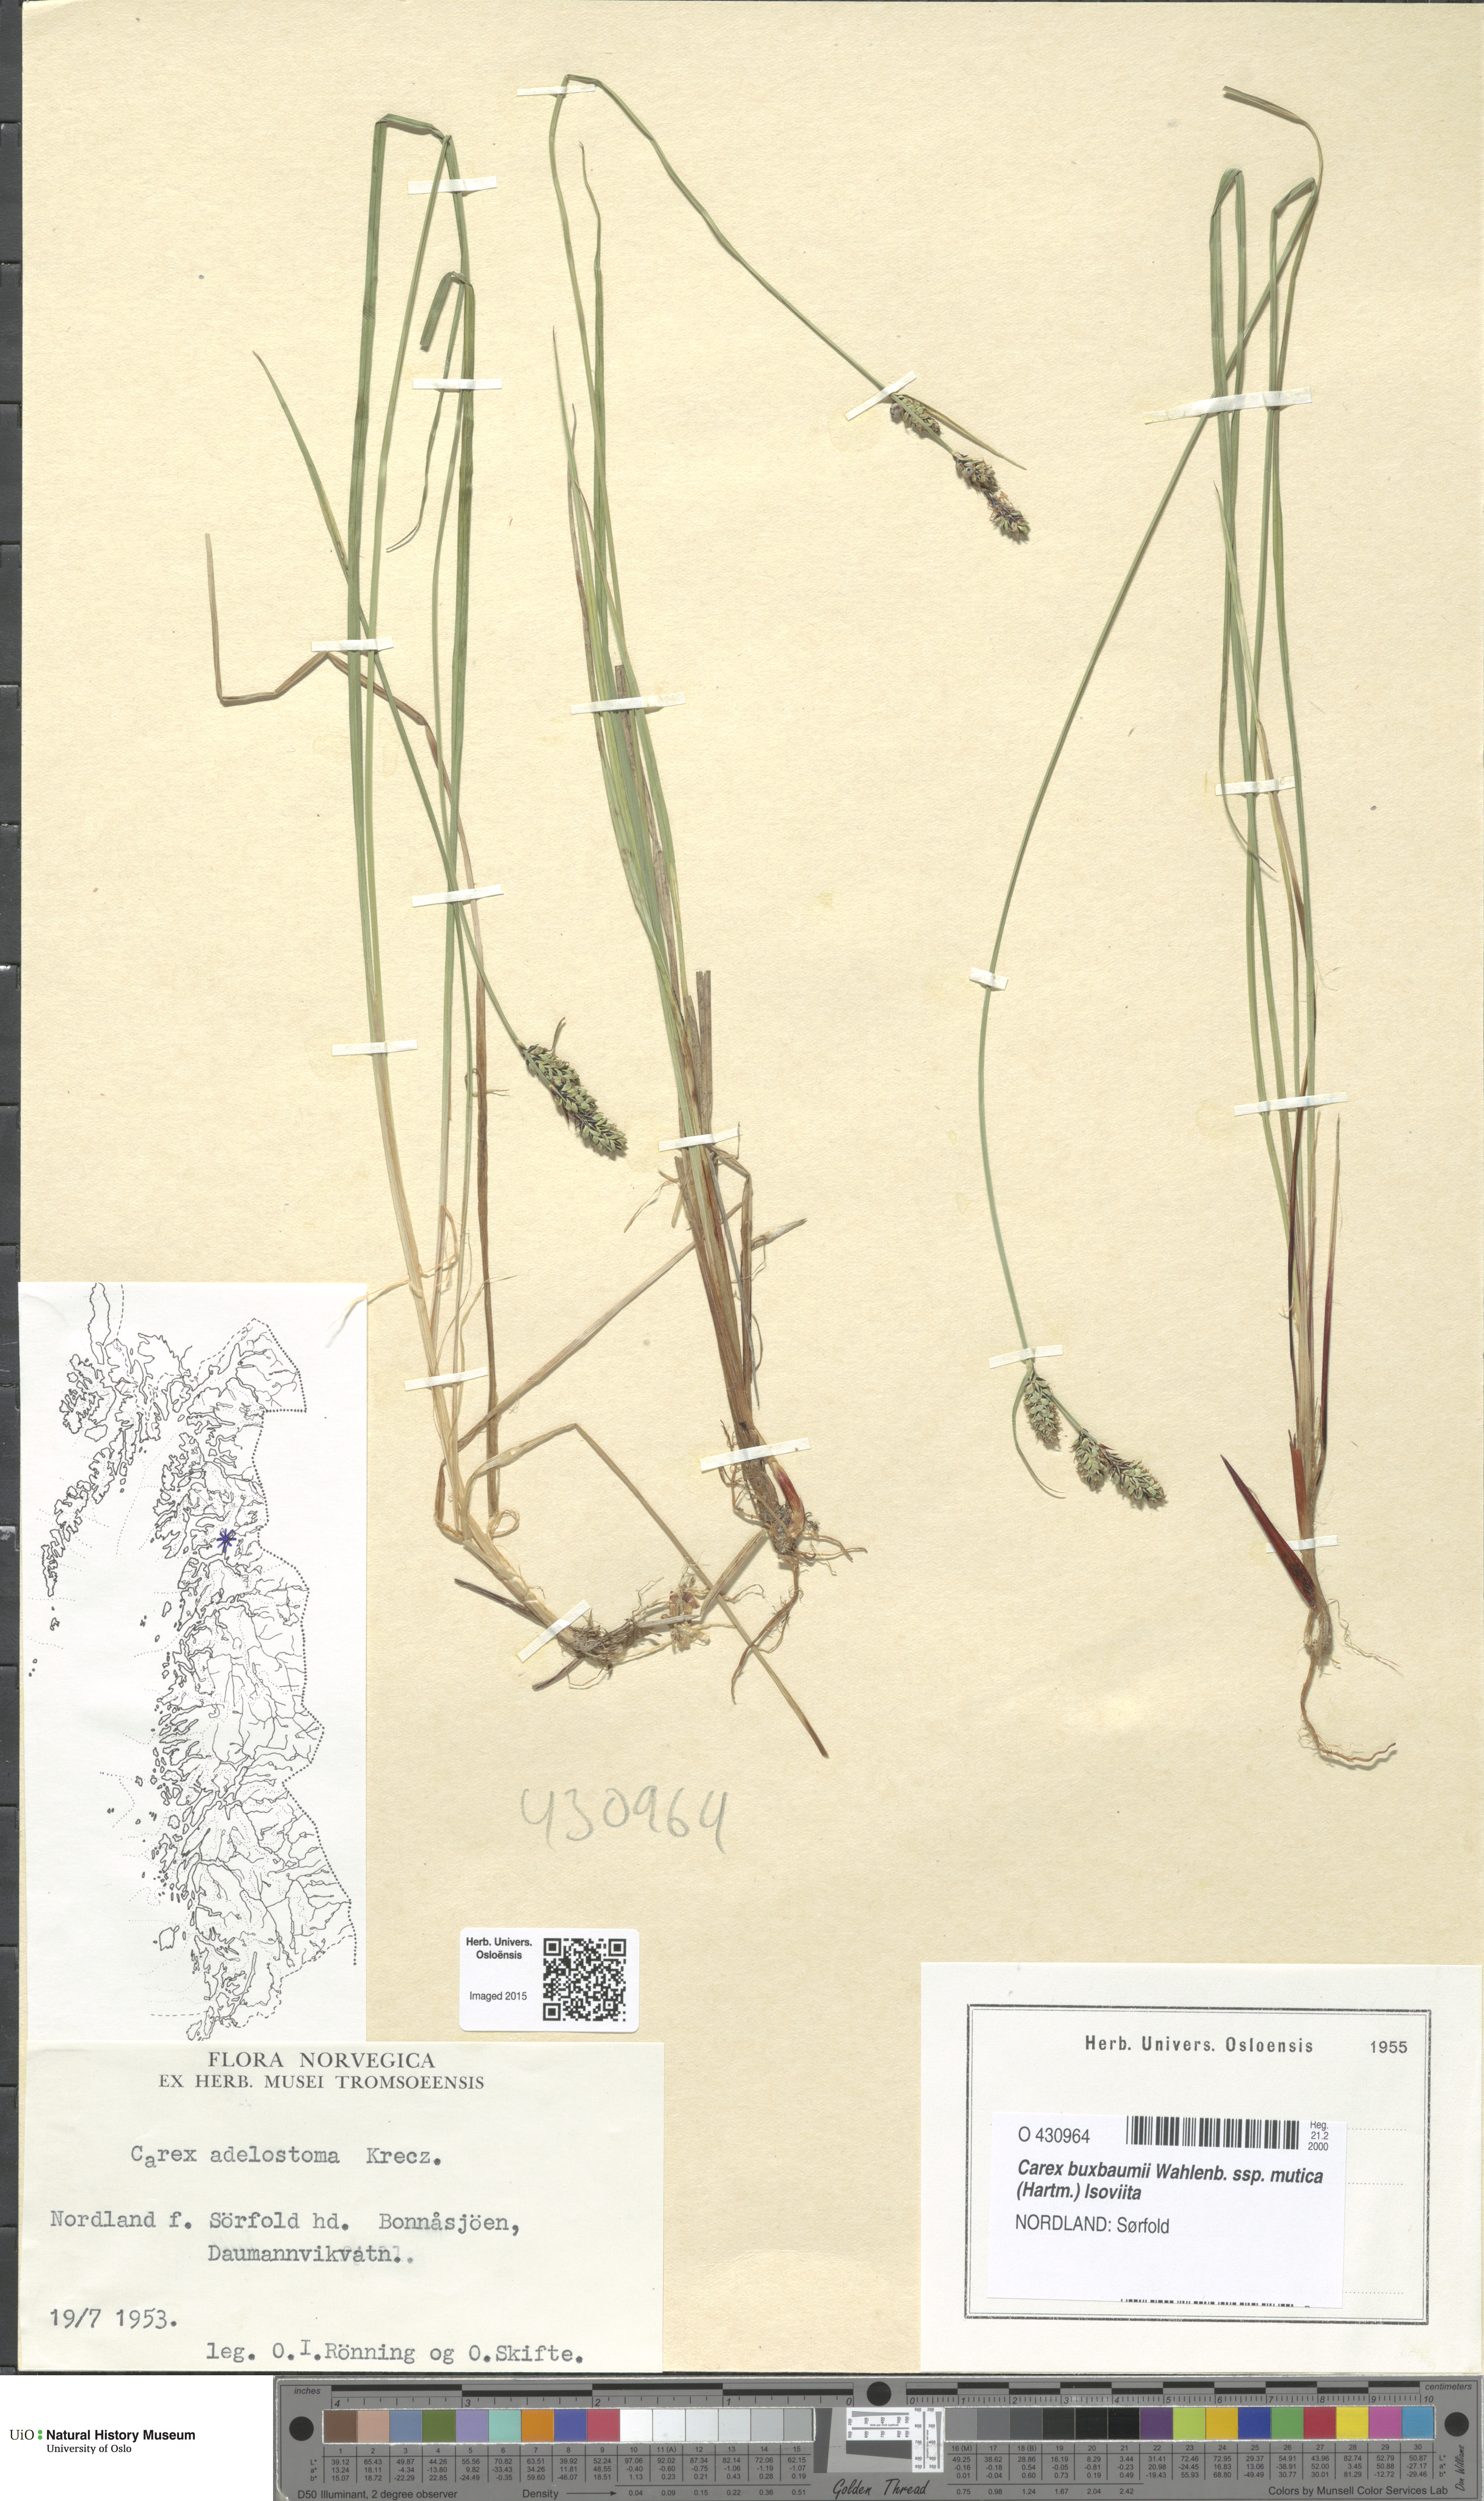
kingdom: Plantae
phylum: Tracheophyta
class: Liliopsida
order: Poales
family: Cyperaceae
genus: Carex
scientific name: Carex adelostoma
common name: Circumpolar sedge
